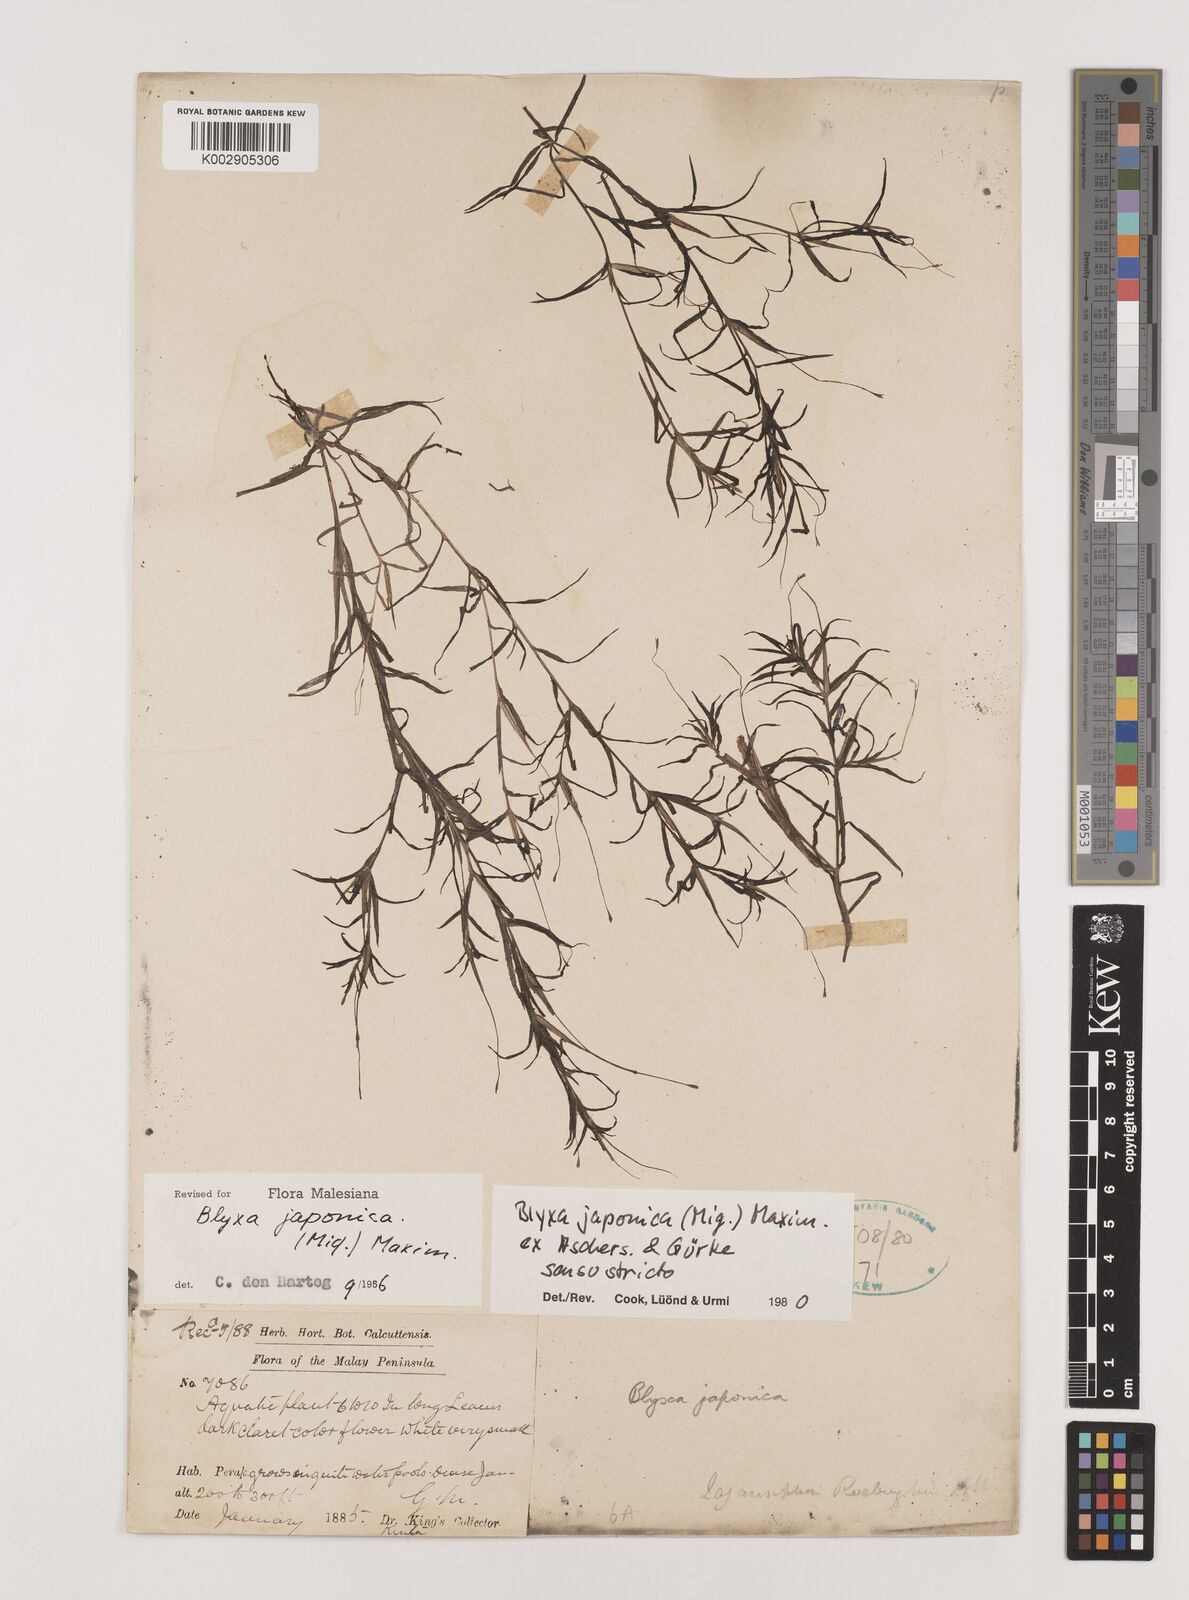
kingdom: Plantae
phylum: Tracheophyta
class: Liliopsida
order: Alismatales
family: Hydrocharitaceae
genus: Blyxa
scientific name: Blyxa japonica
